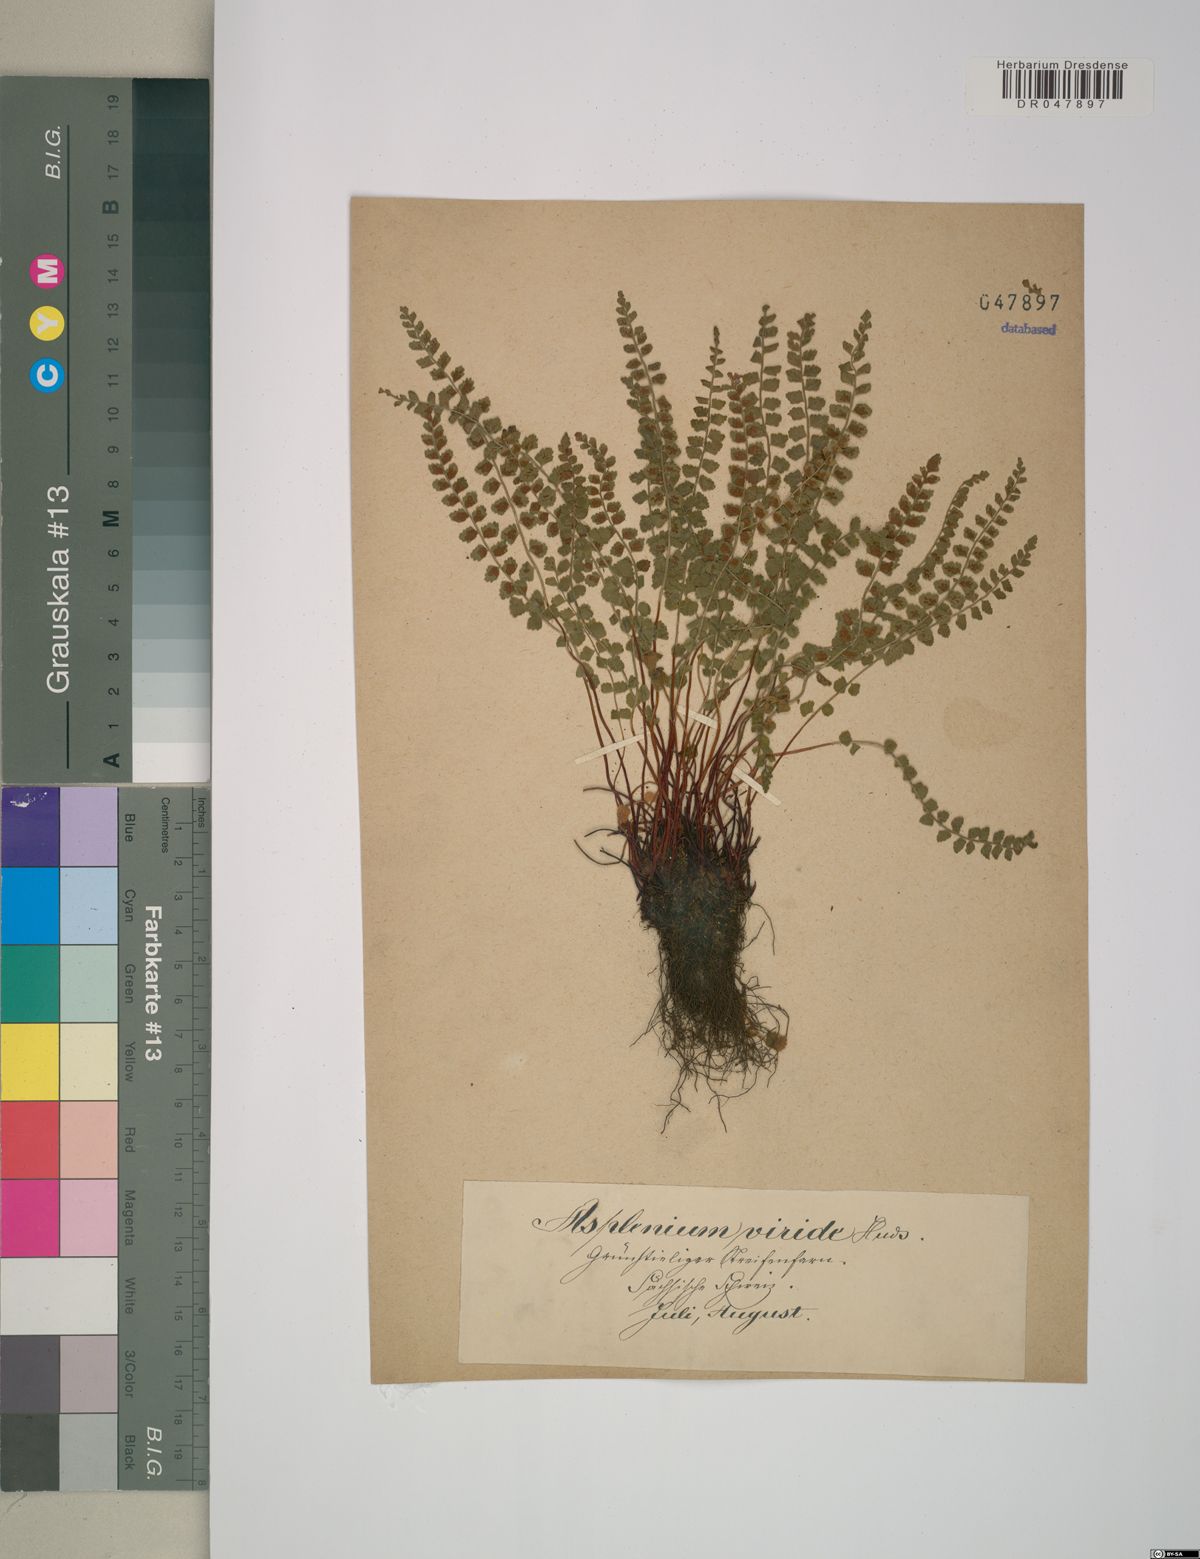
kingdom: Plantae
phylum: Tracheophyta
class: Polypodiopsida
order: Polypodiales
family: Aspleniaceae
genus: Asplenium
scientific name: Asplenium viride
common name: Green spleenwort
